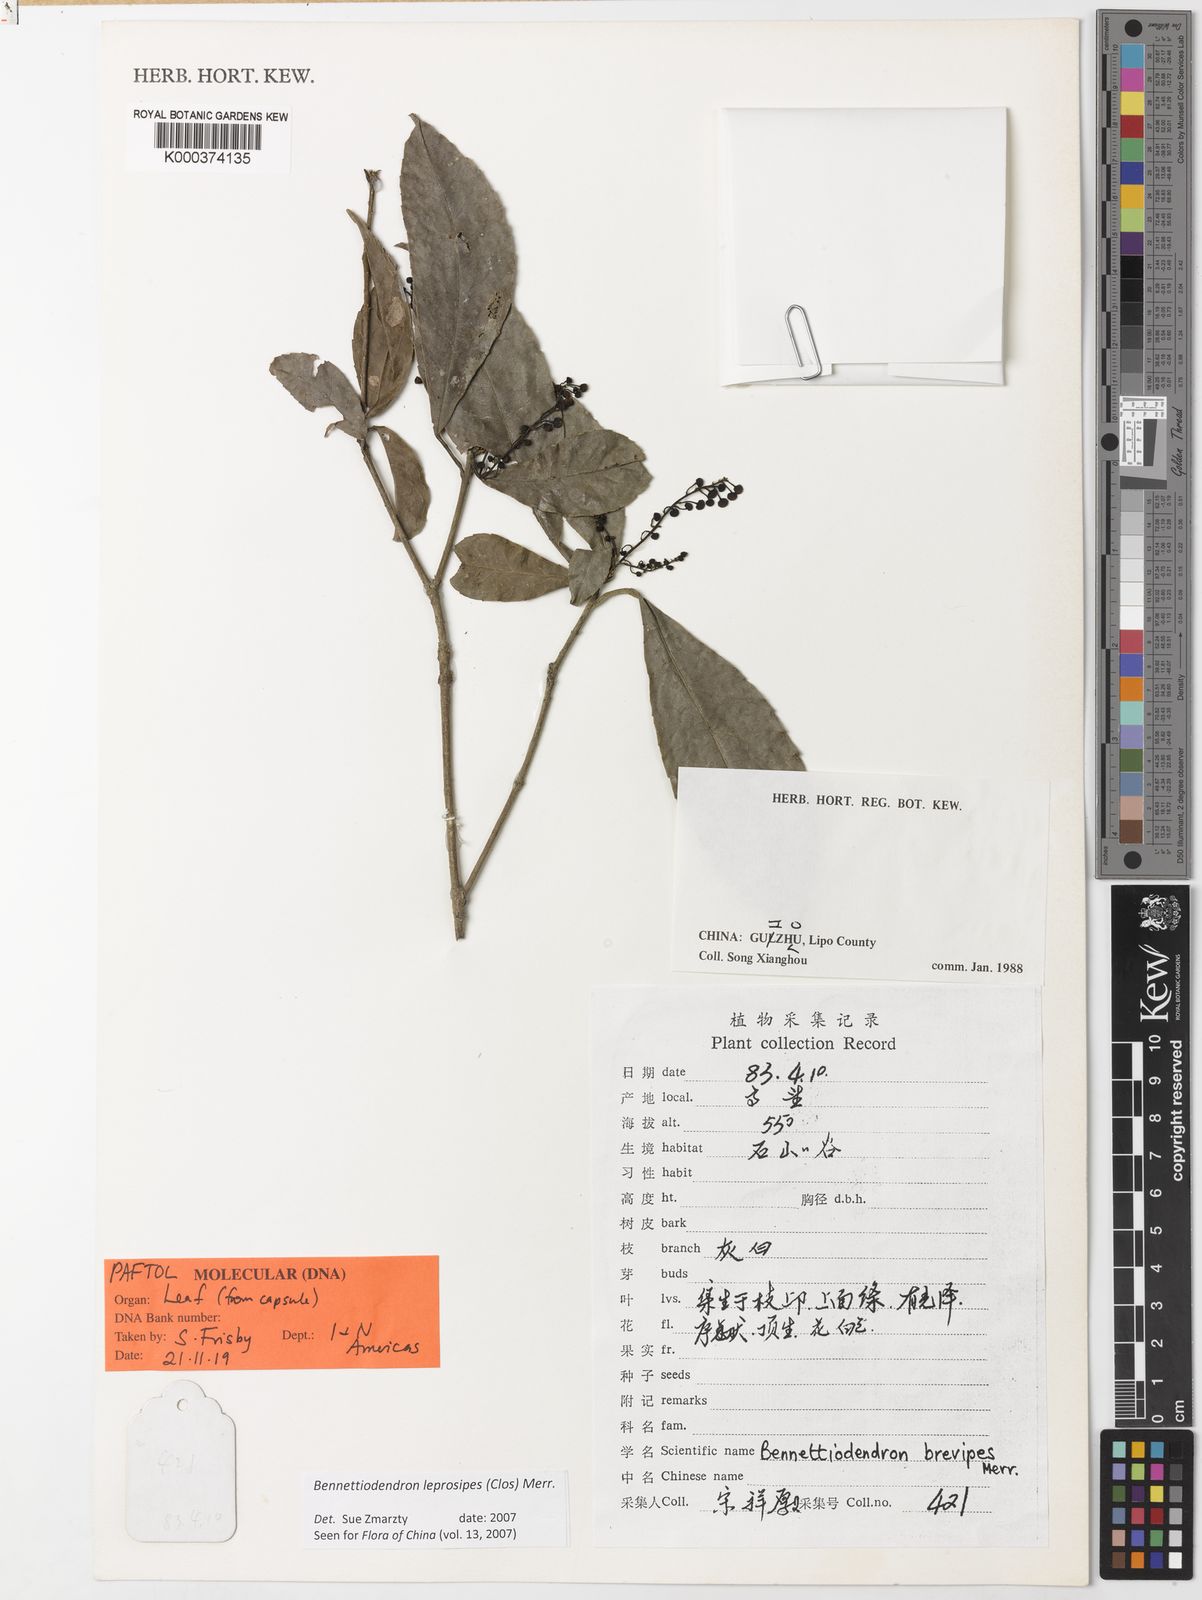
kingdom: Plantae
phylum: Tracheophyta
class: Magnoliopsida
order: Malpighiales
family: Salicaceae
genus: Bennettiodendron
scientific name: Bennettiodendron leprosipes
